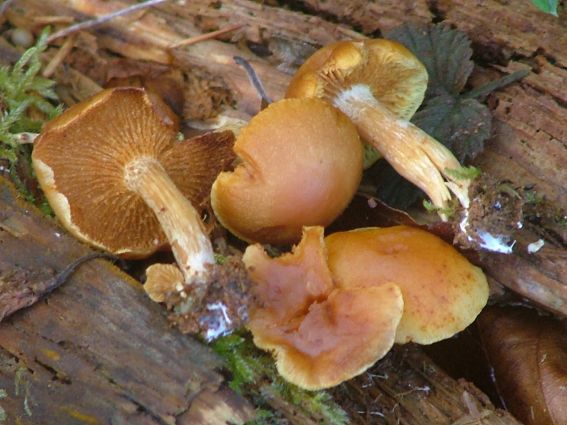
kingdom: Fungi
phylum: Basidiomycota
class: Agaricomycetes
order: Agaricales
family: Hymenogastraceae
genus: Gymnopilus
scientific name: Gymnopilus penetrans
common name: plettet flammehat
